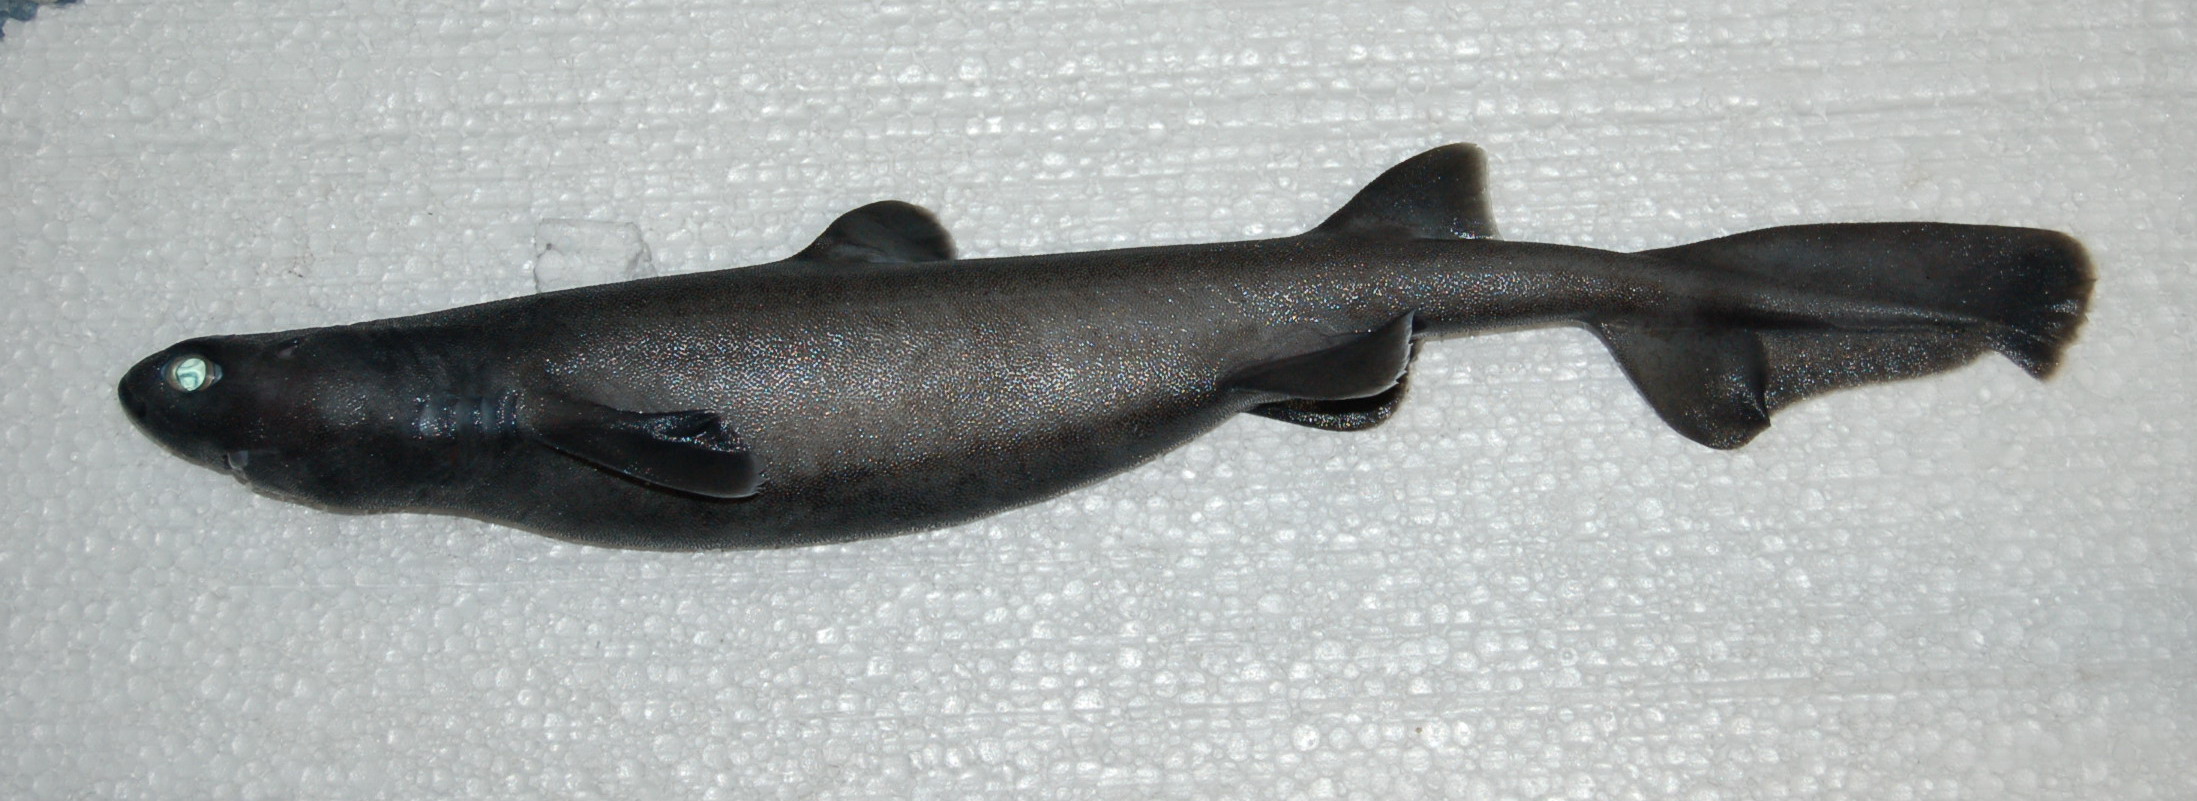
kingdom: Animalia
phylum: Chordata
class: Elasmobranchii
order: Squaliformes
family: Dalatiidae
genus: Dalatias
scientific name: Dalatias licha
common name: Kitefin shark
